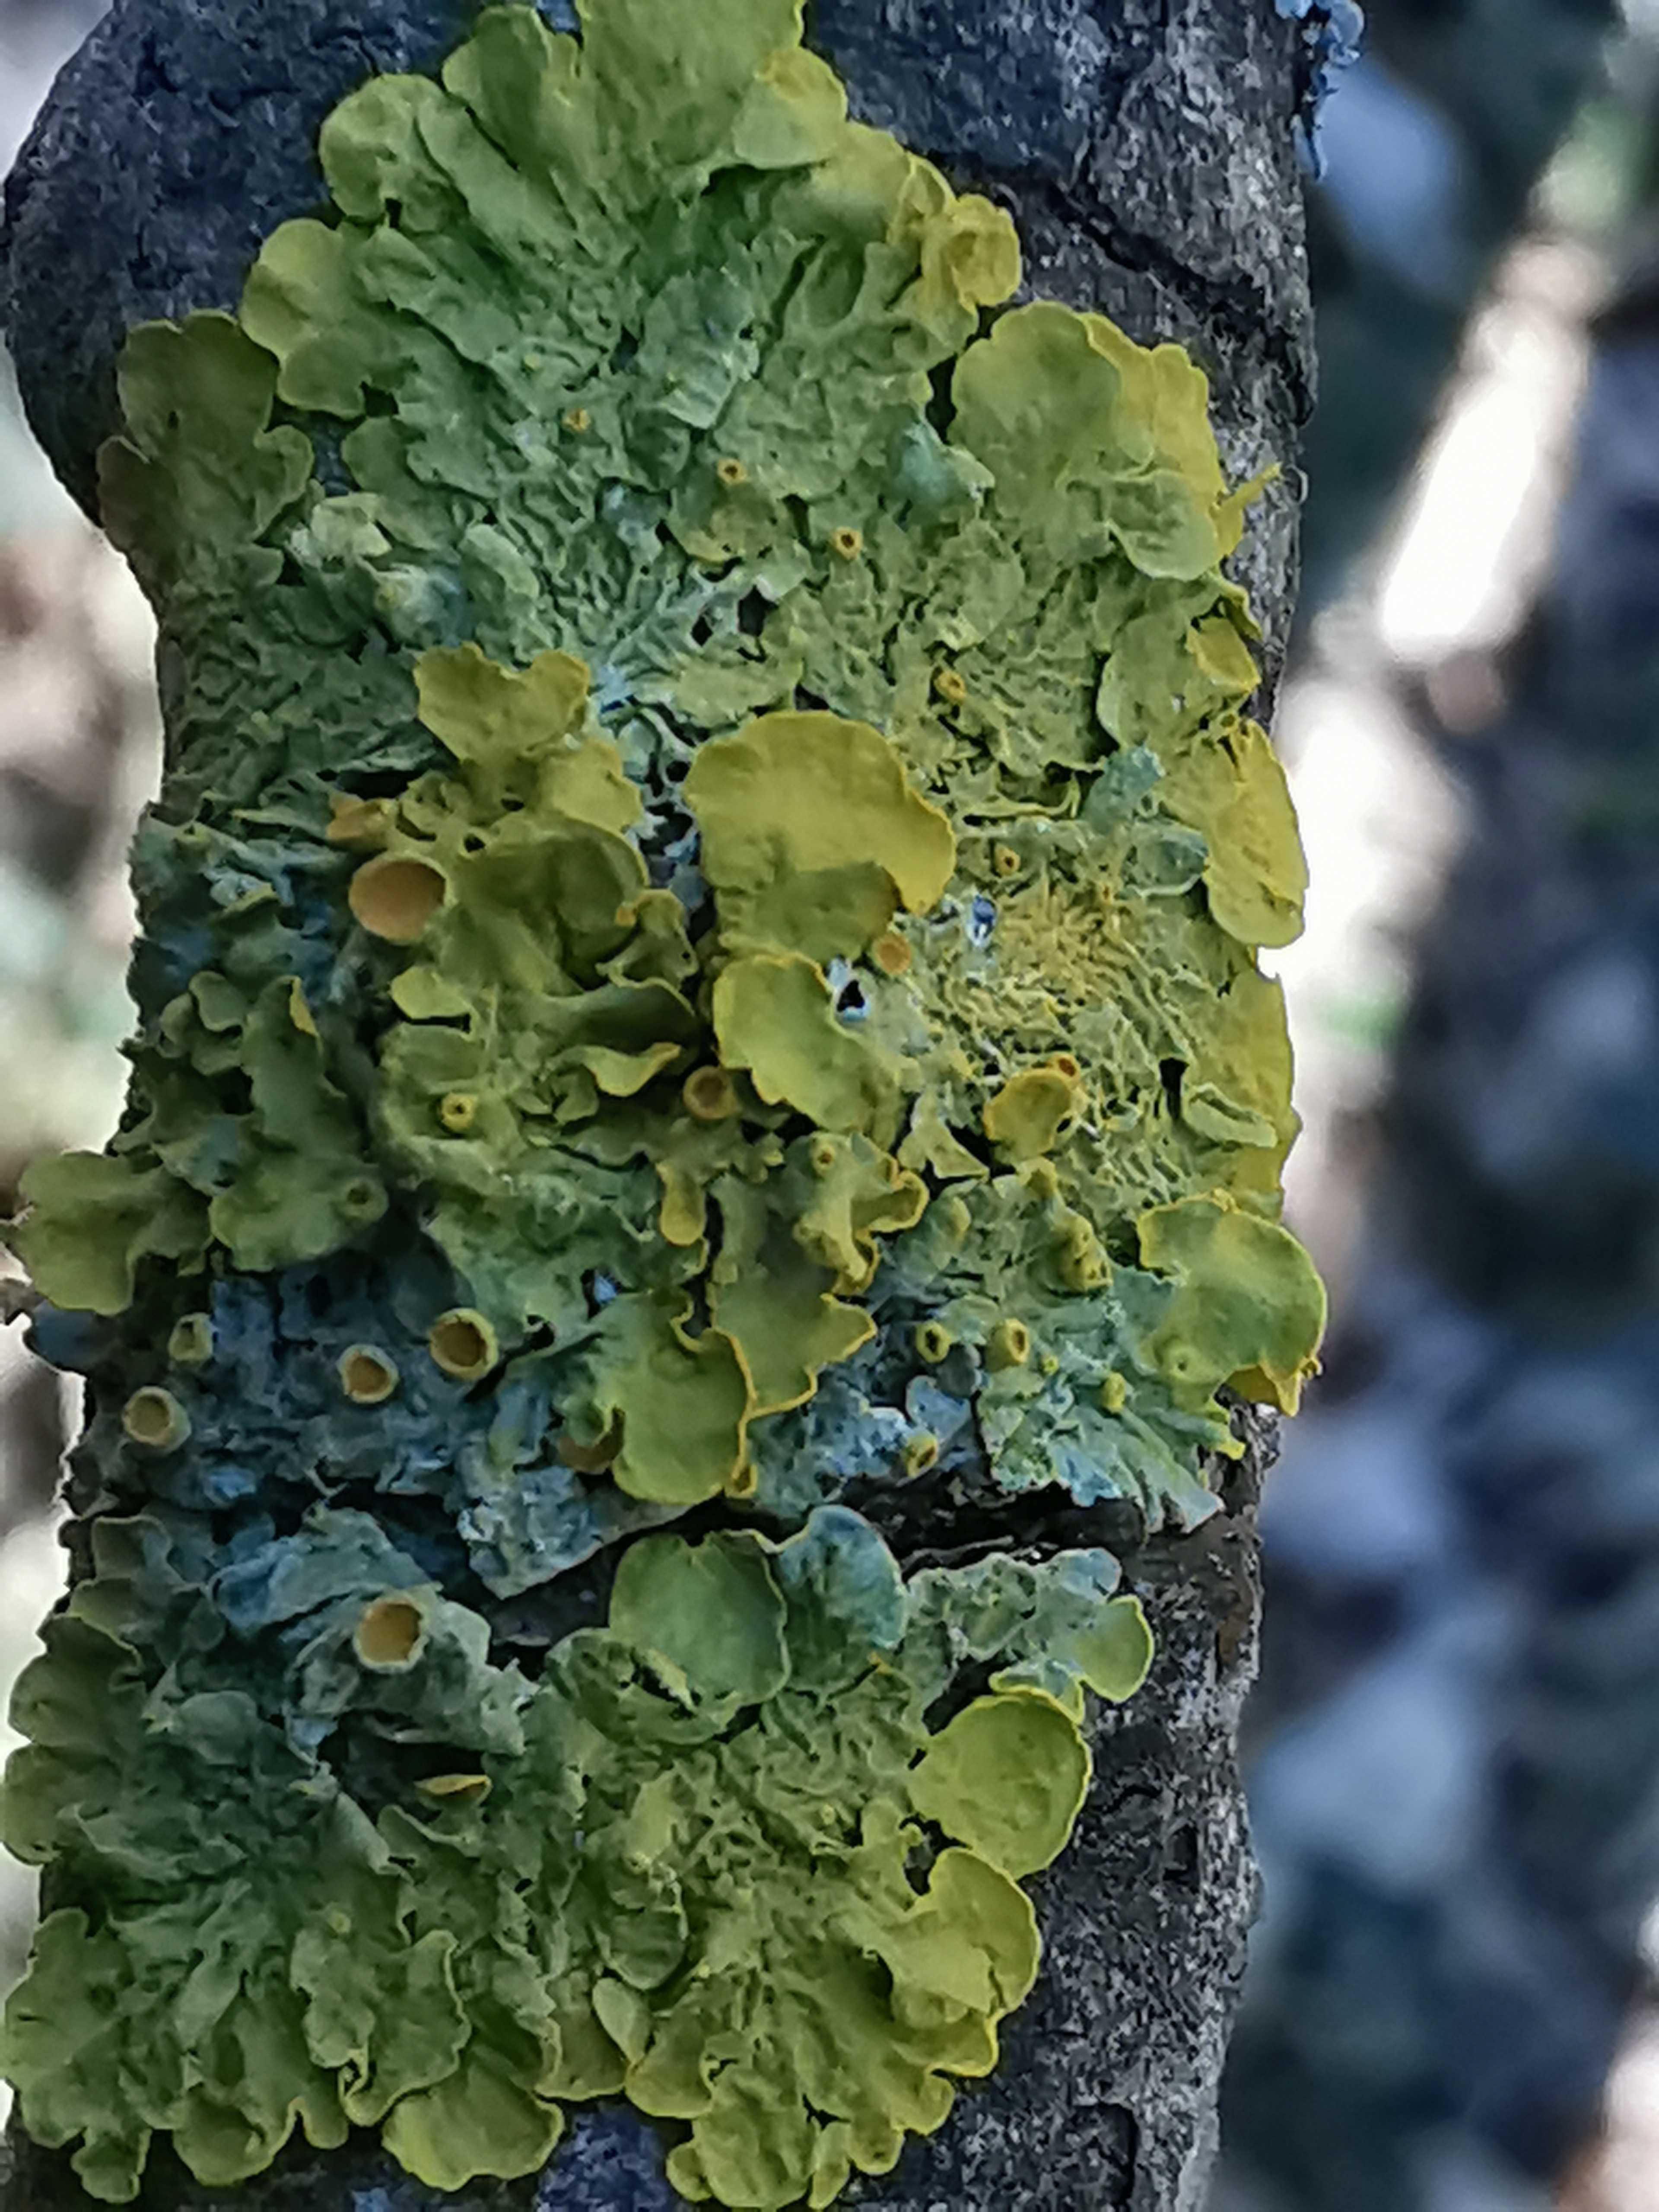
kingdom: Fungi
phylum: Ascomycota
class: Lecanoromycetes
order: Teloschistales
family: Teloschistaceae
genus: Xanthoria
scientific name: Xanthoria parietina
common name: almindelig væggelav
